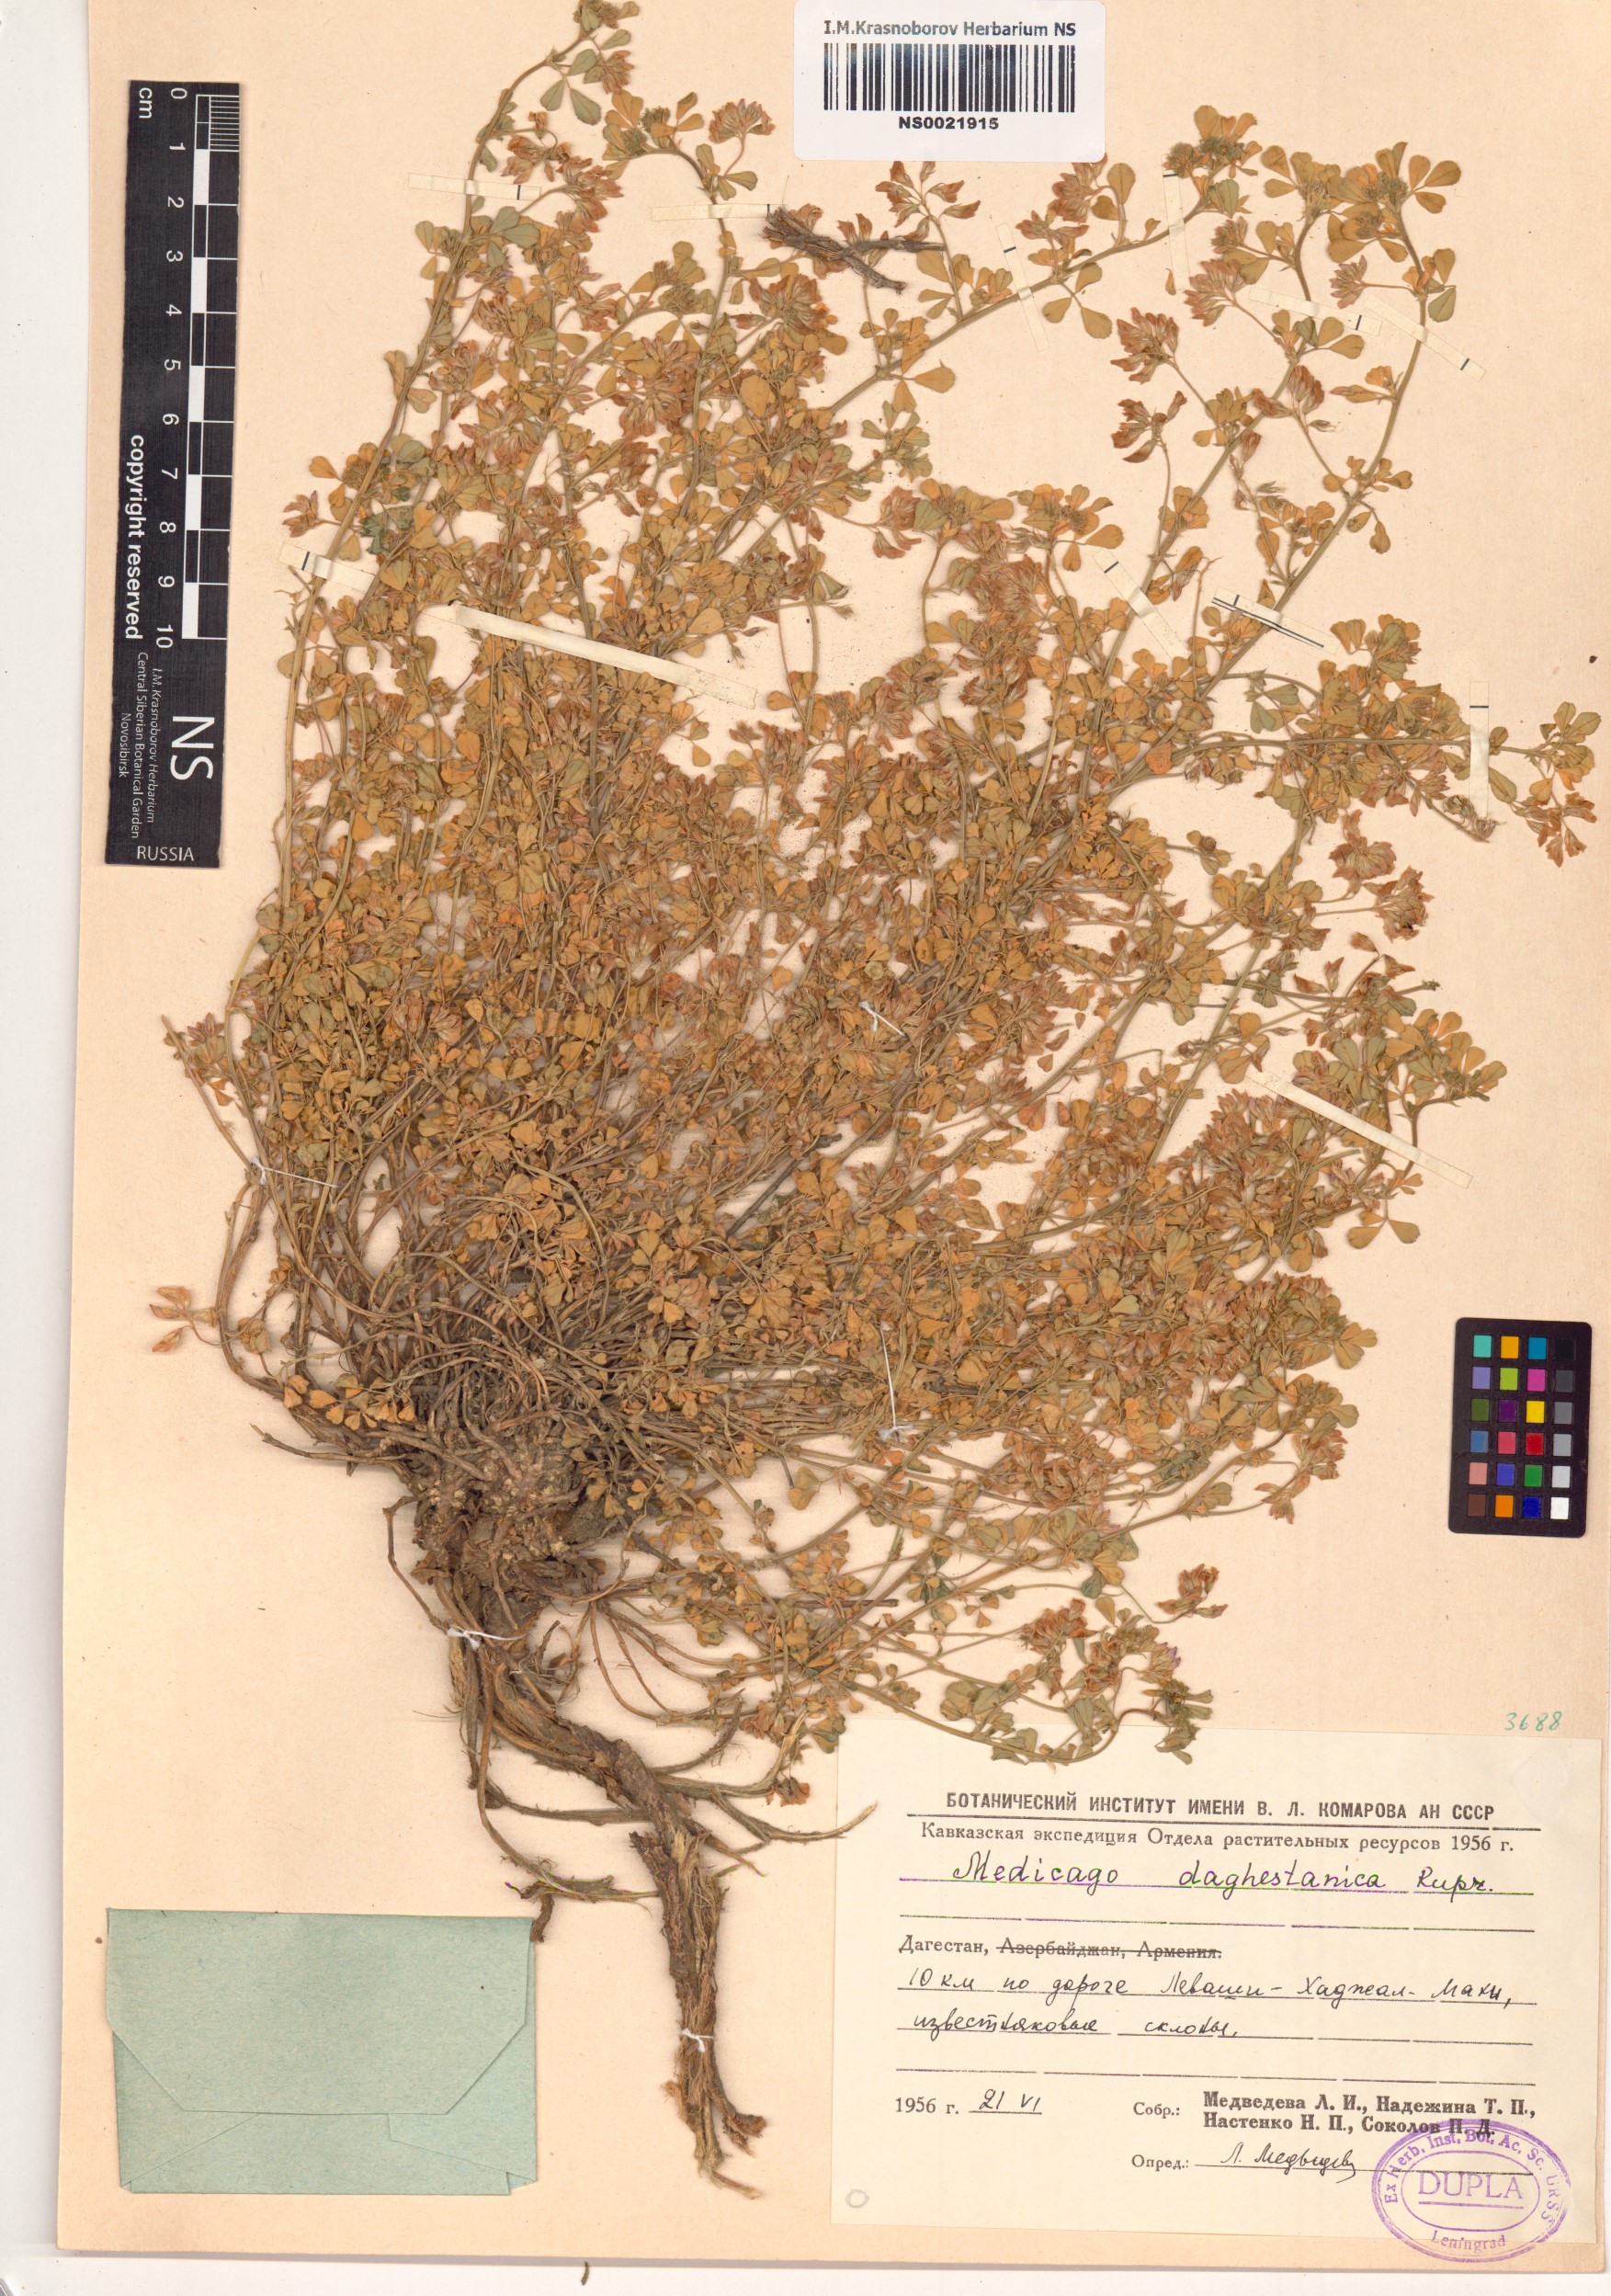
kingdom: Plantae
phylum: Tracheophyta
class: Magnoliopsida
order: Fabales
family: Fabaceae
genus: Medicago
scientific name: Medicago daghestanica
